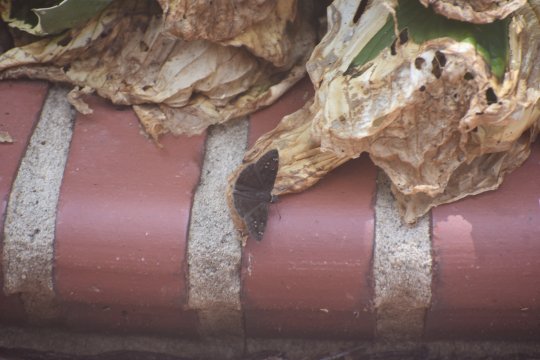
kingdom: Animalia
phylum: Arthropoda
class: Insecta
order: Lepidoptera
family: Hesperiidae
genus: Gesta
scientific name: Gesta
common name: Horace's Duskywing
